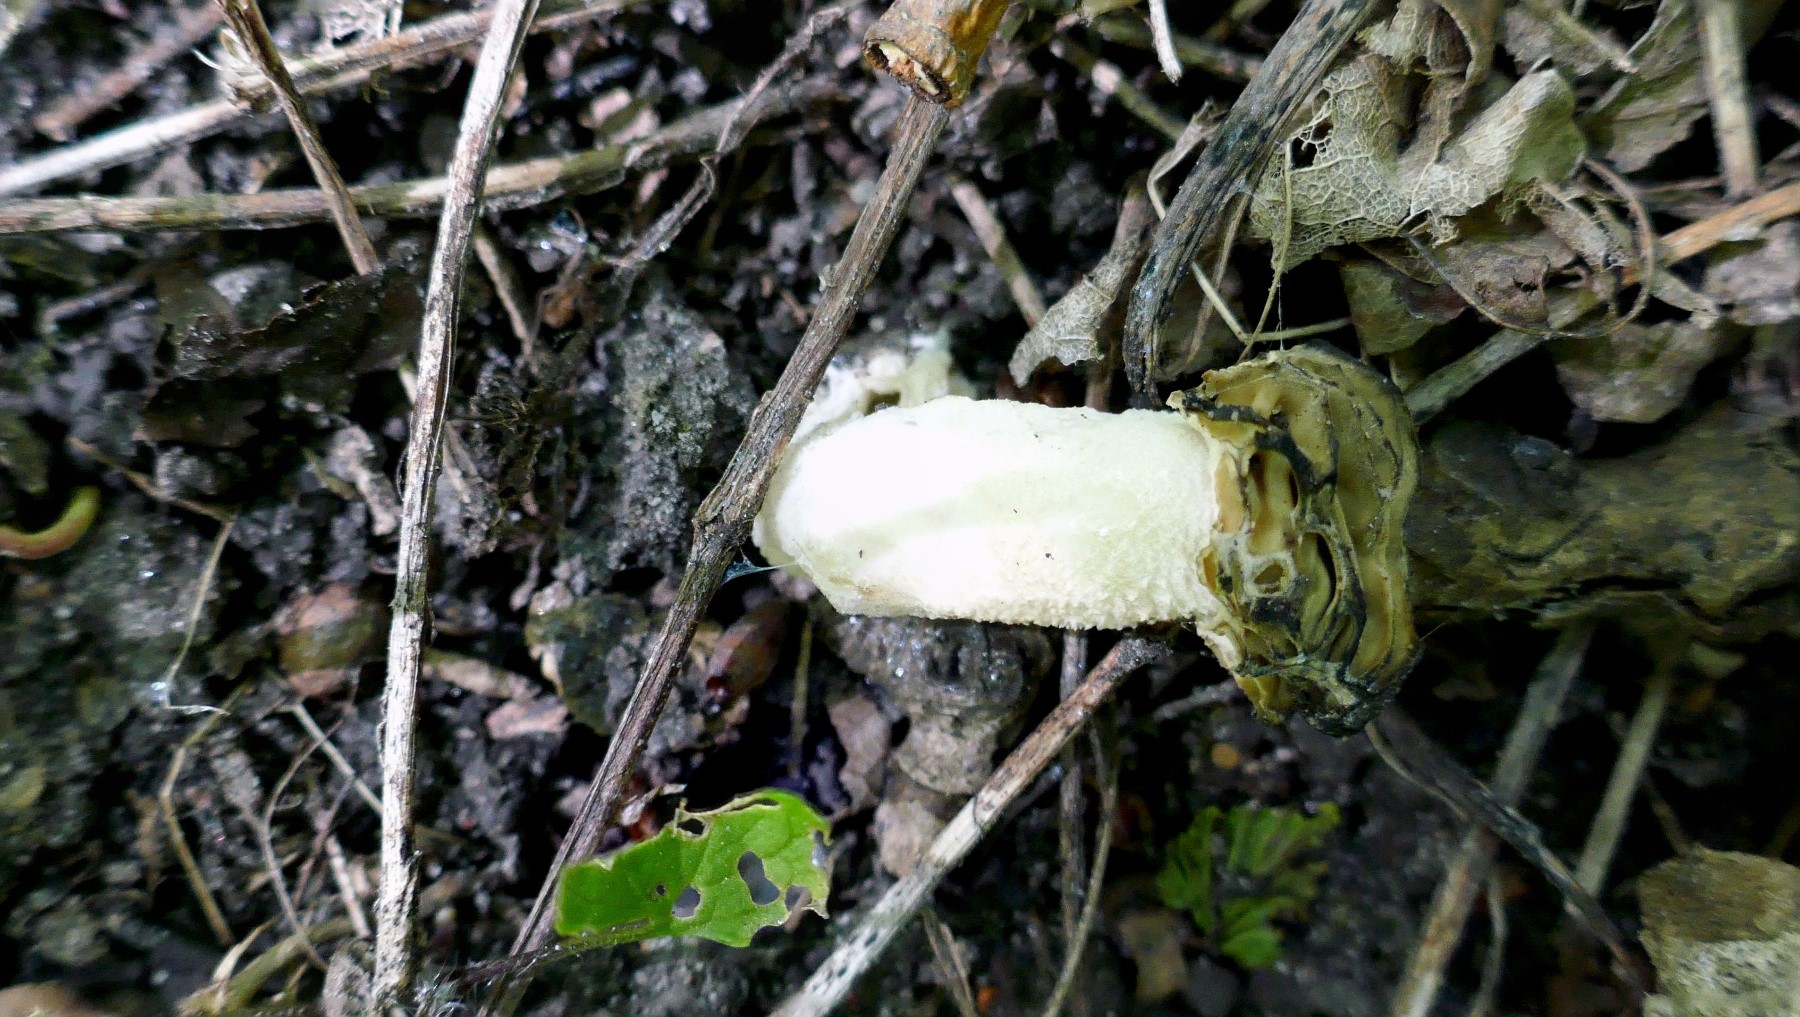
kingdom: Fungi
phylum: Ascomycota
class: Pezizomycetes
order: Pezizales
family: Morchellaceae
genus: Morchella
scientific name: Morchella semilibera
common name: hætte-morkel
